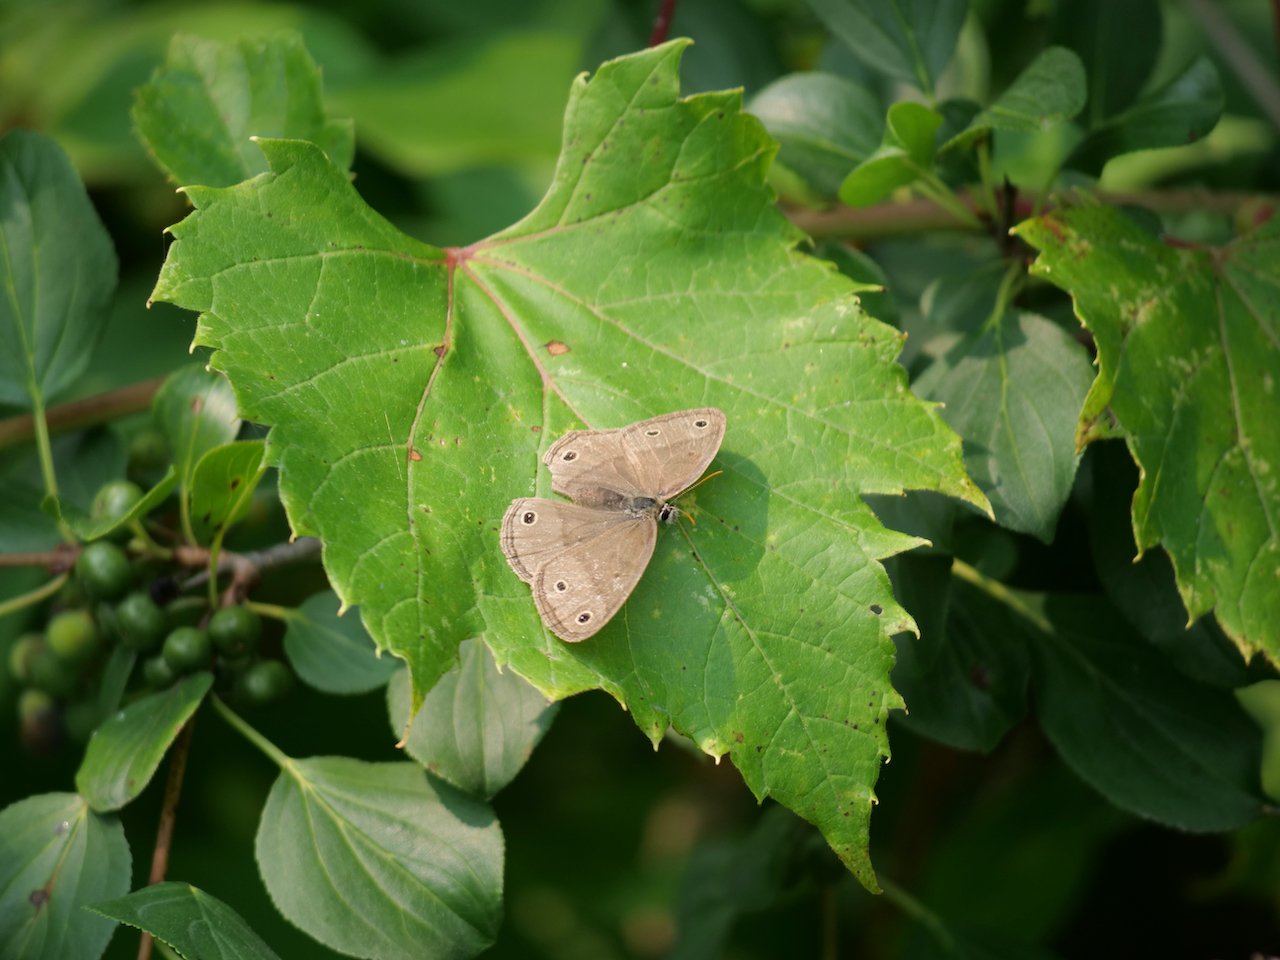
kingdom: Animalia
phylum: Arthropoda
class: Insecta
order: Lepidoptera
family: Nymphalidae
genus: Euptychia
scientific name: Euptychia cymela
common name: Little Wood Satyr
